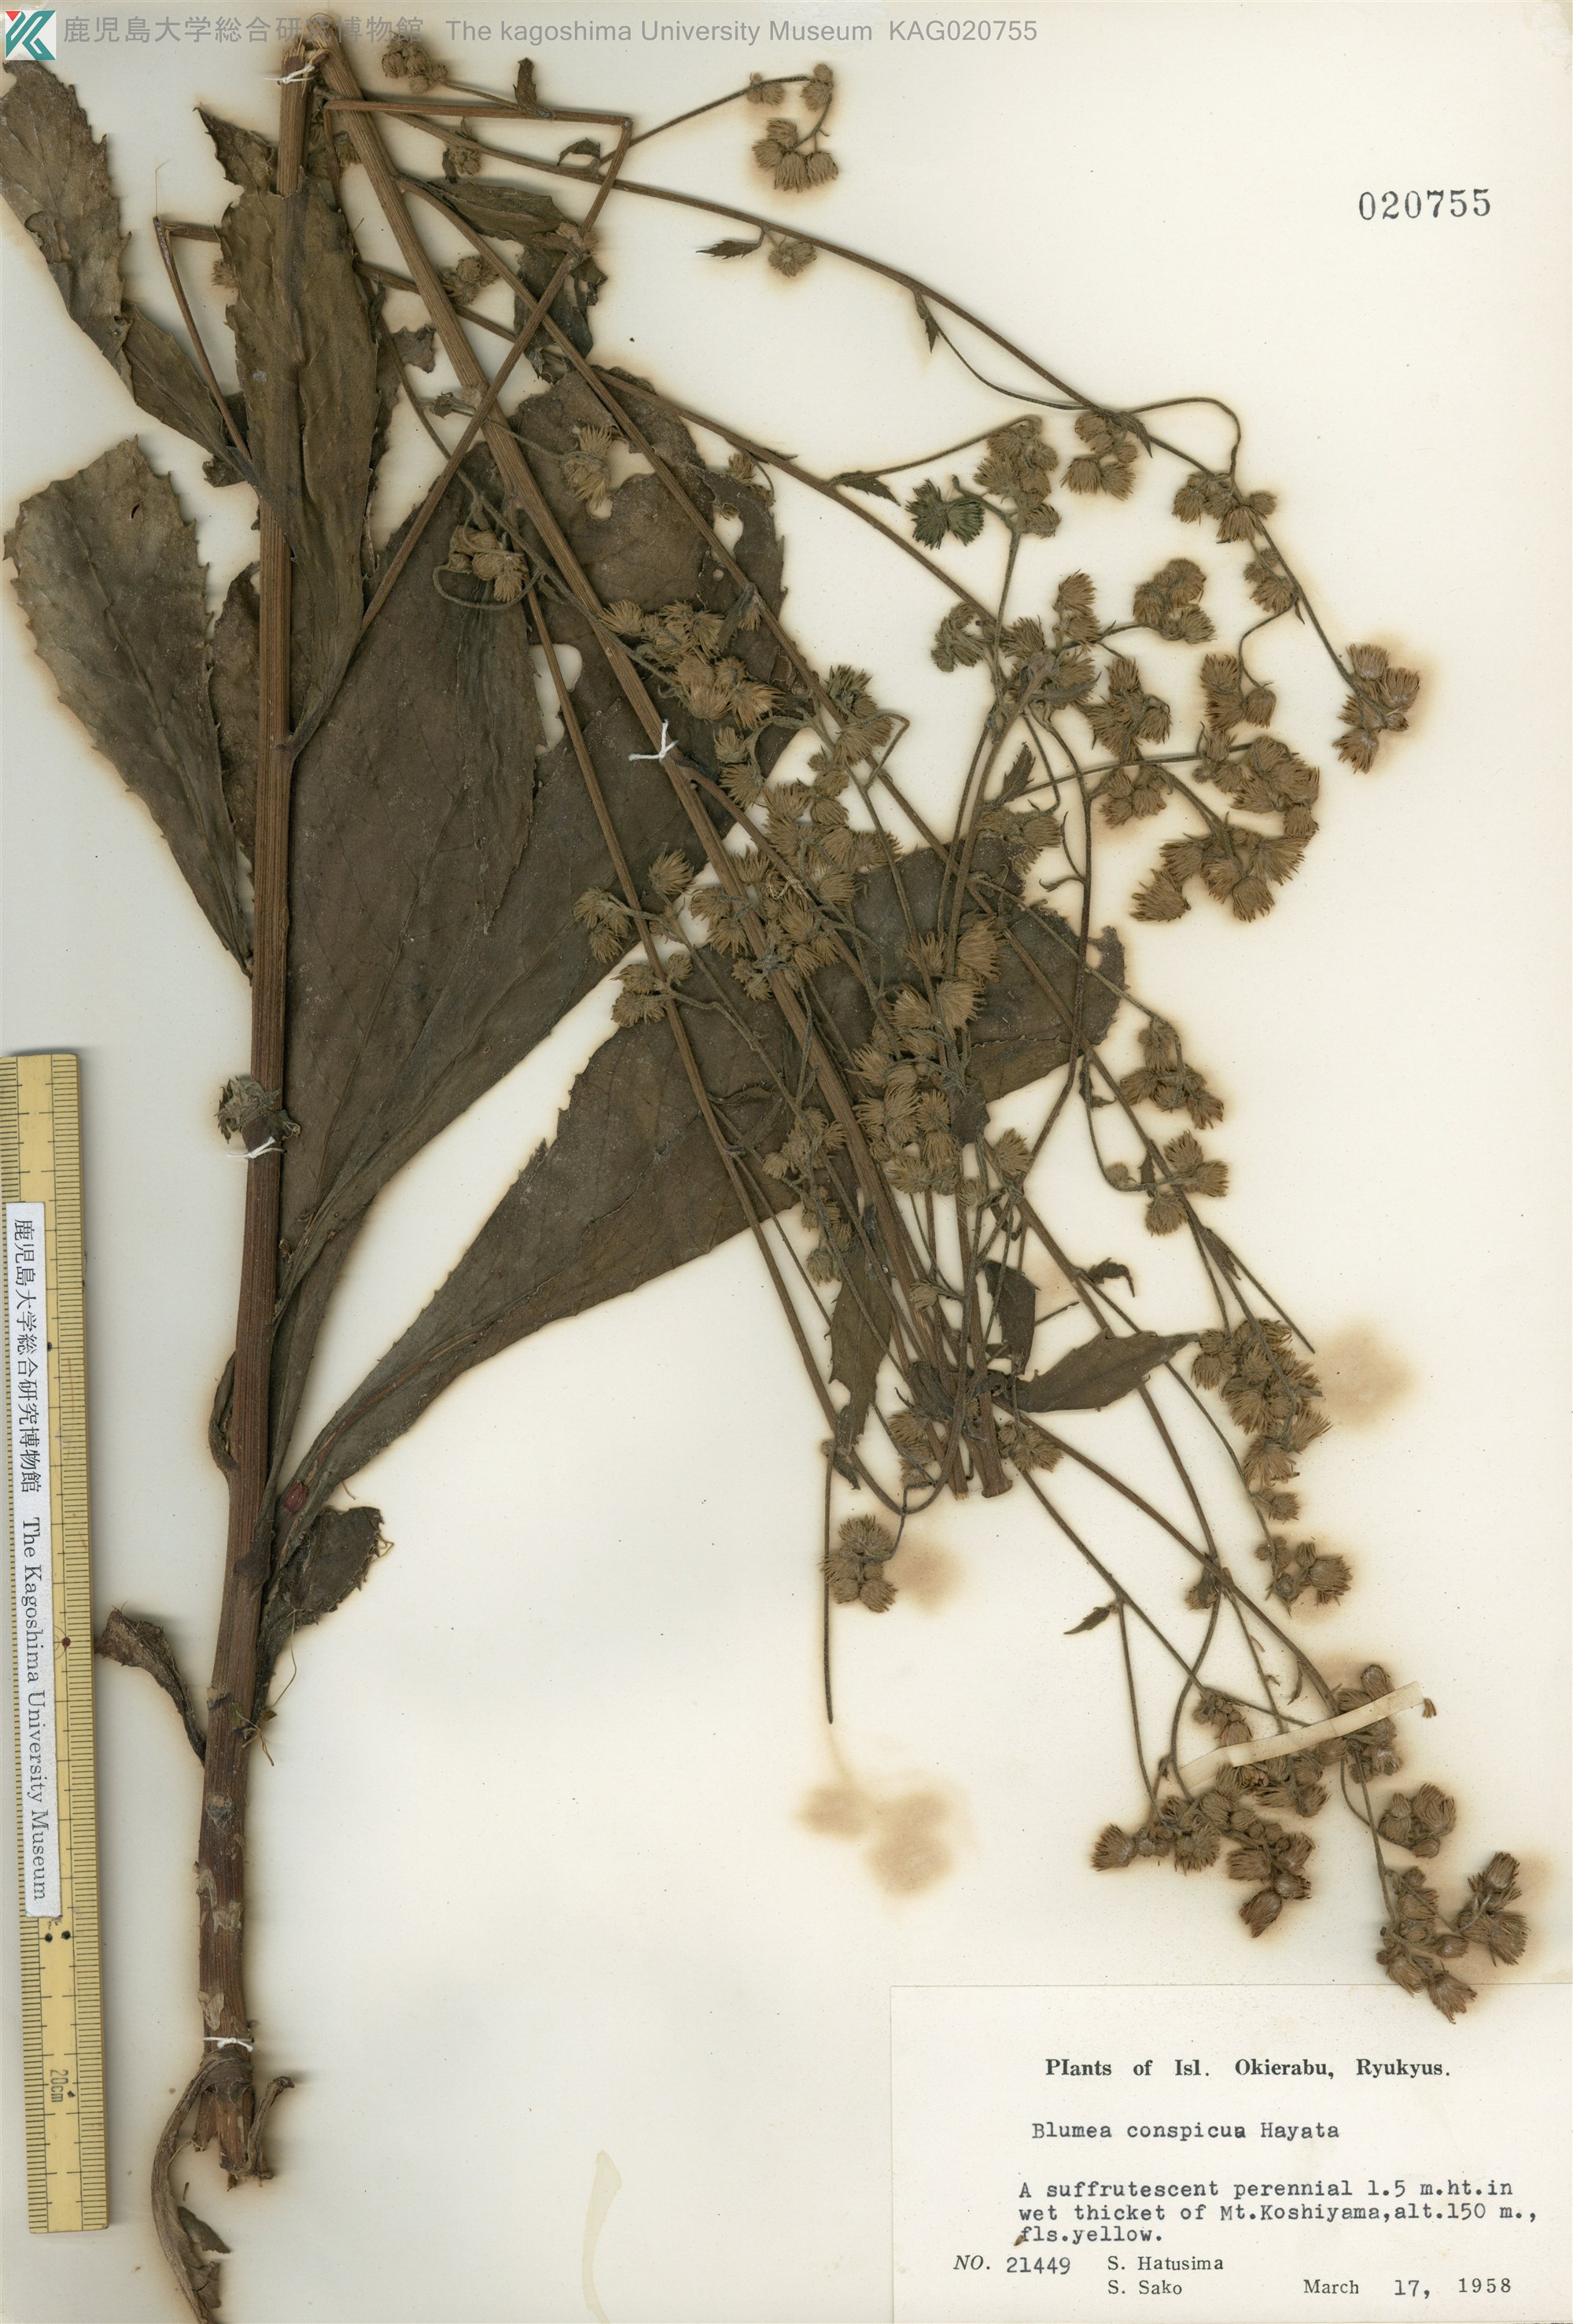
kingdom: Plantae
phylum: Tracheophyta
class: Magnoliopsida
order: Asterales
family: Asteraceae
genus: Blumea
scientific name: Blumea conspicua
